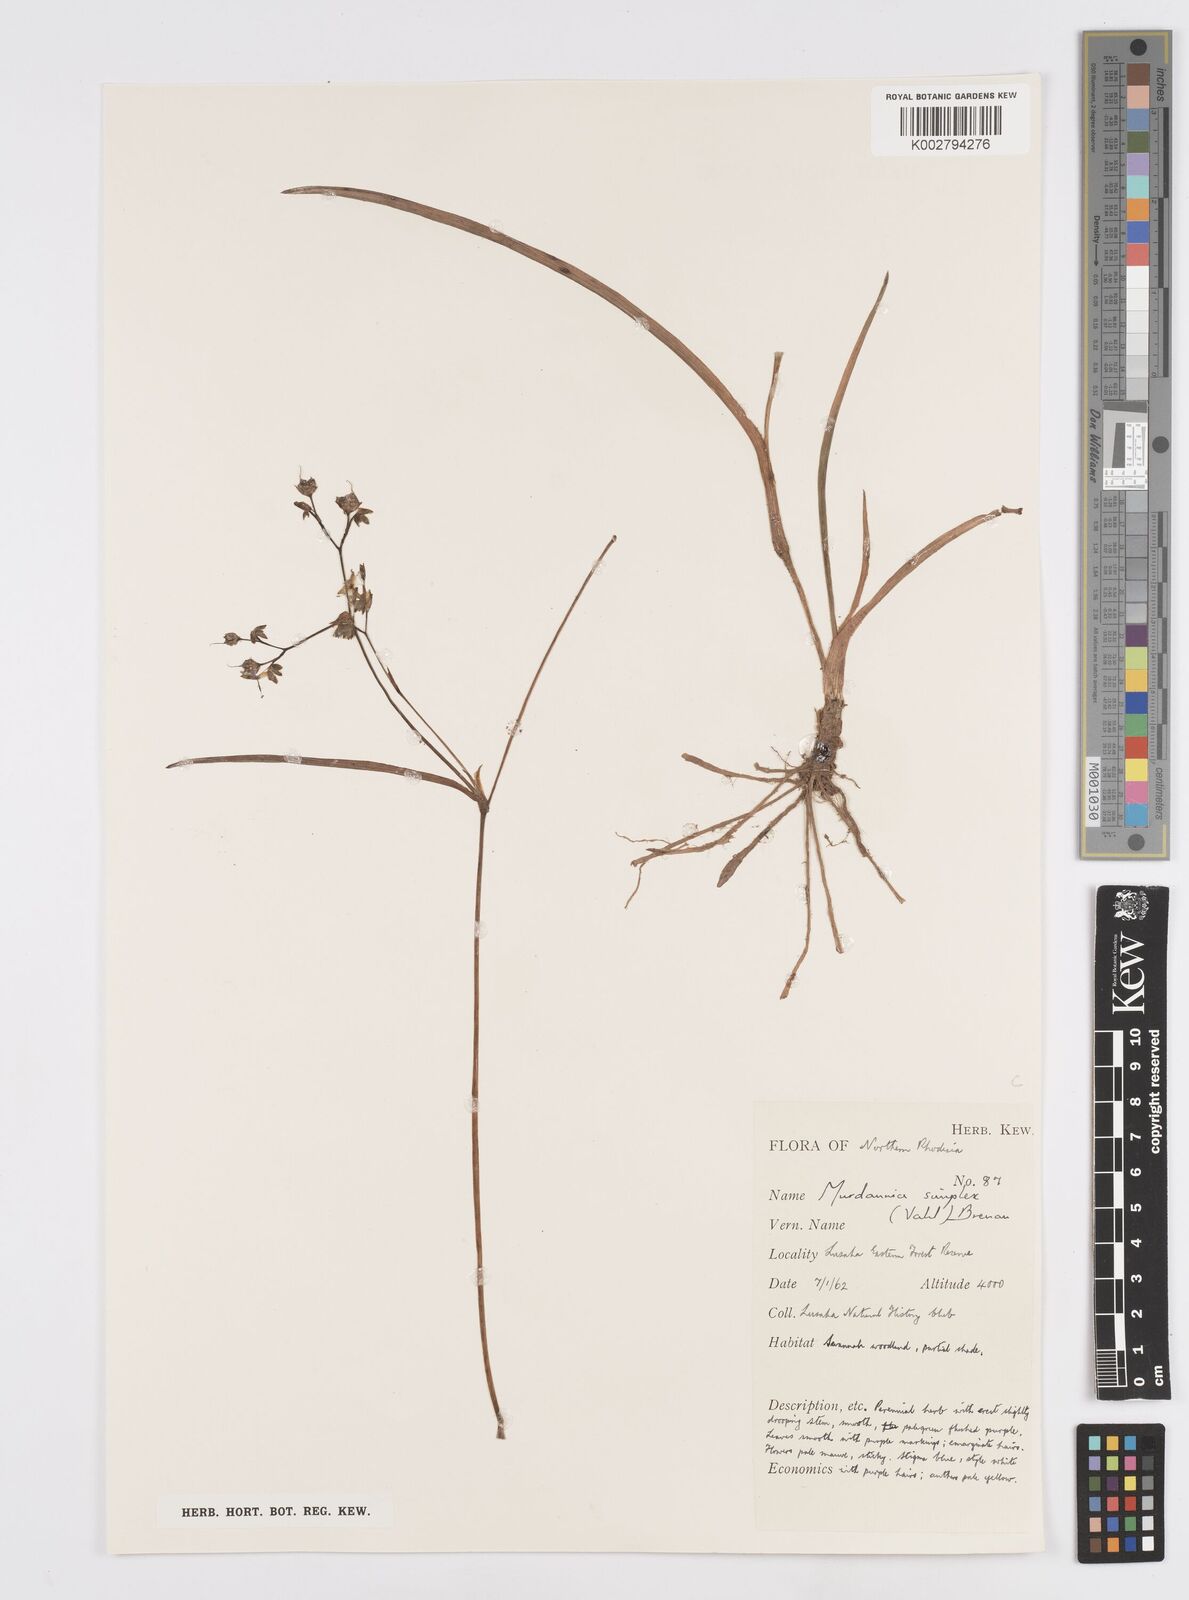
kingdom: Plantae
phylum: Tracheophyta
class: Liliopsida
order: Commelinales
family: Commelinaceae
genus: Murdannia
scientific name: Murdannia simplex
